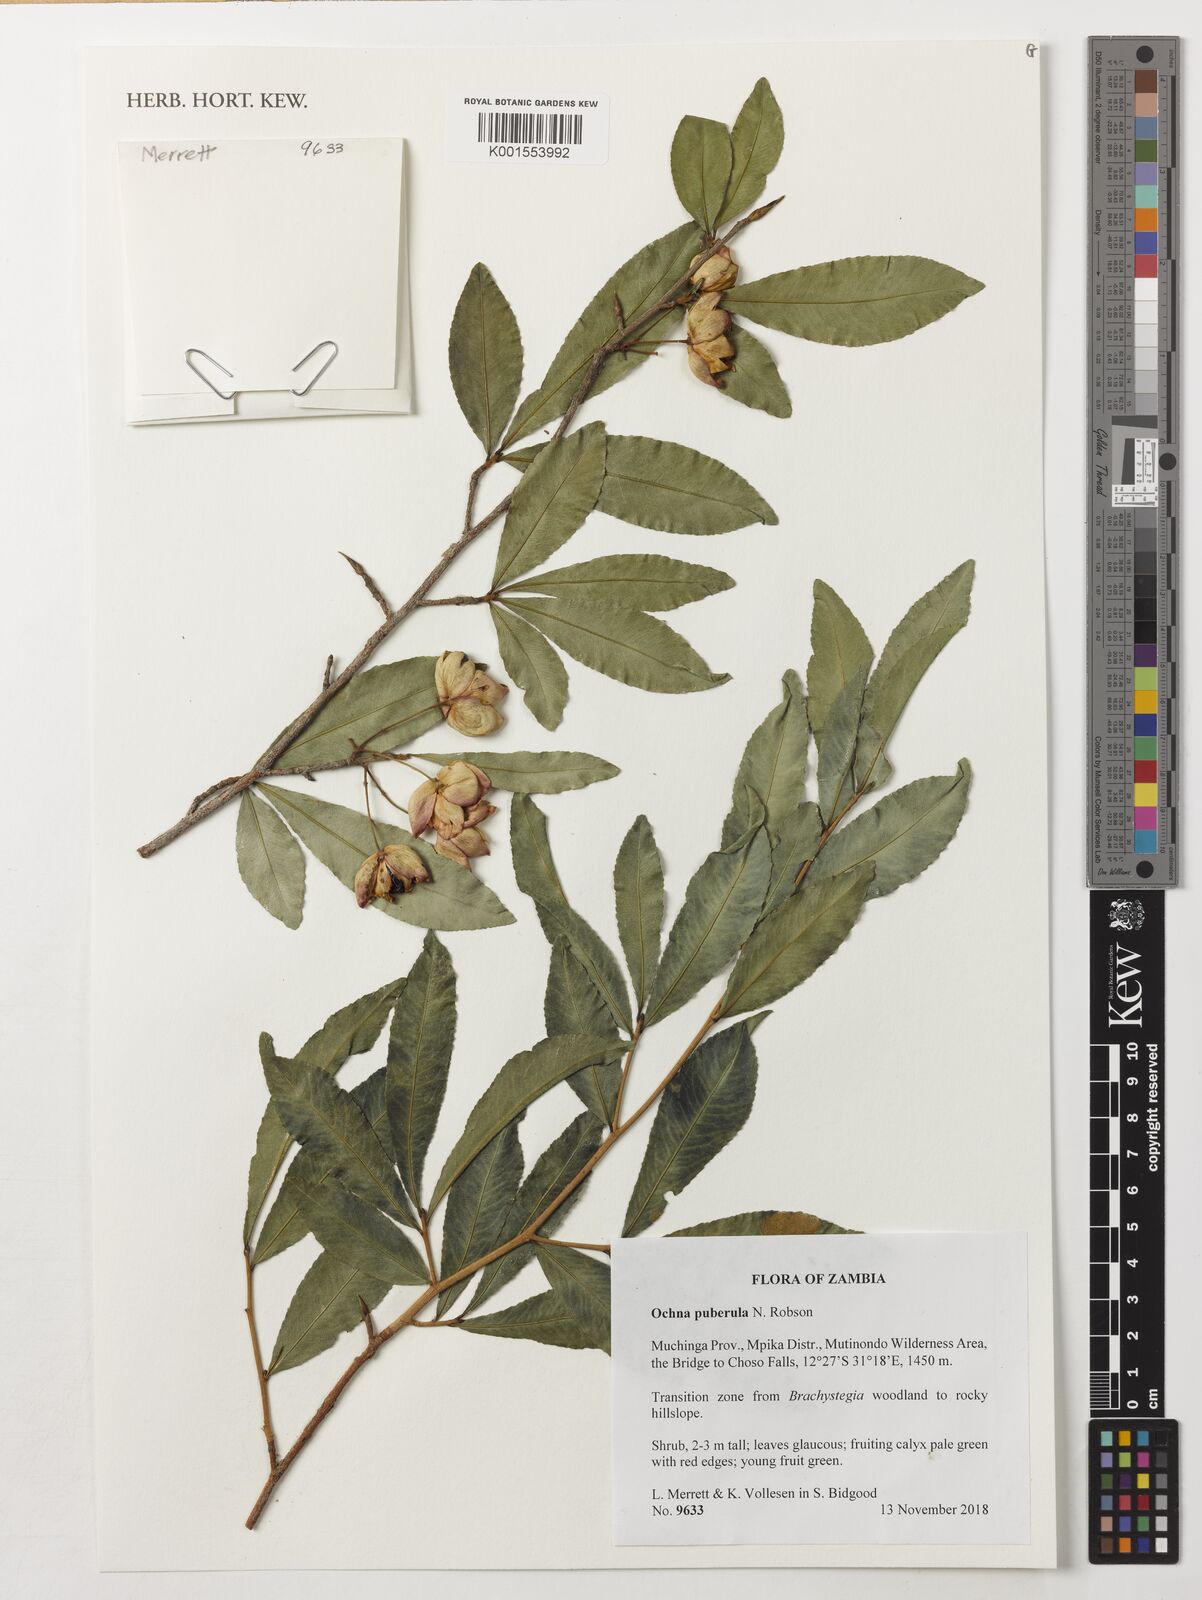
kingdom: Plantae
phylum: Tracheophyta
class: Magnoliopsida
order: Malpighiales
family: Ochnaceae
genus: Ochna
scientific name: Ochna puberula
